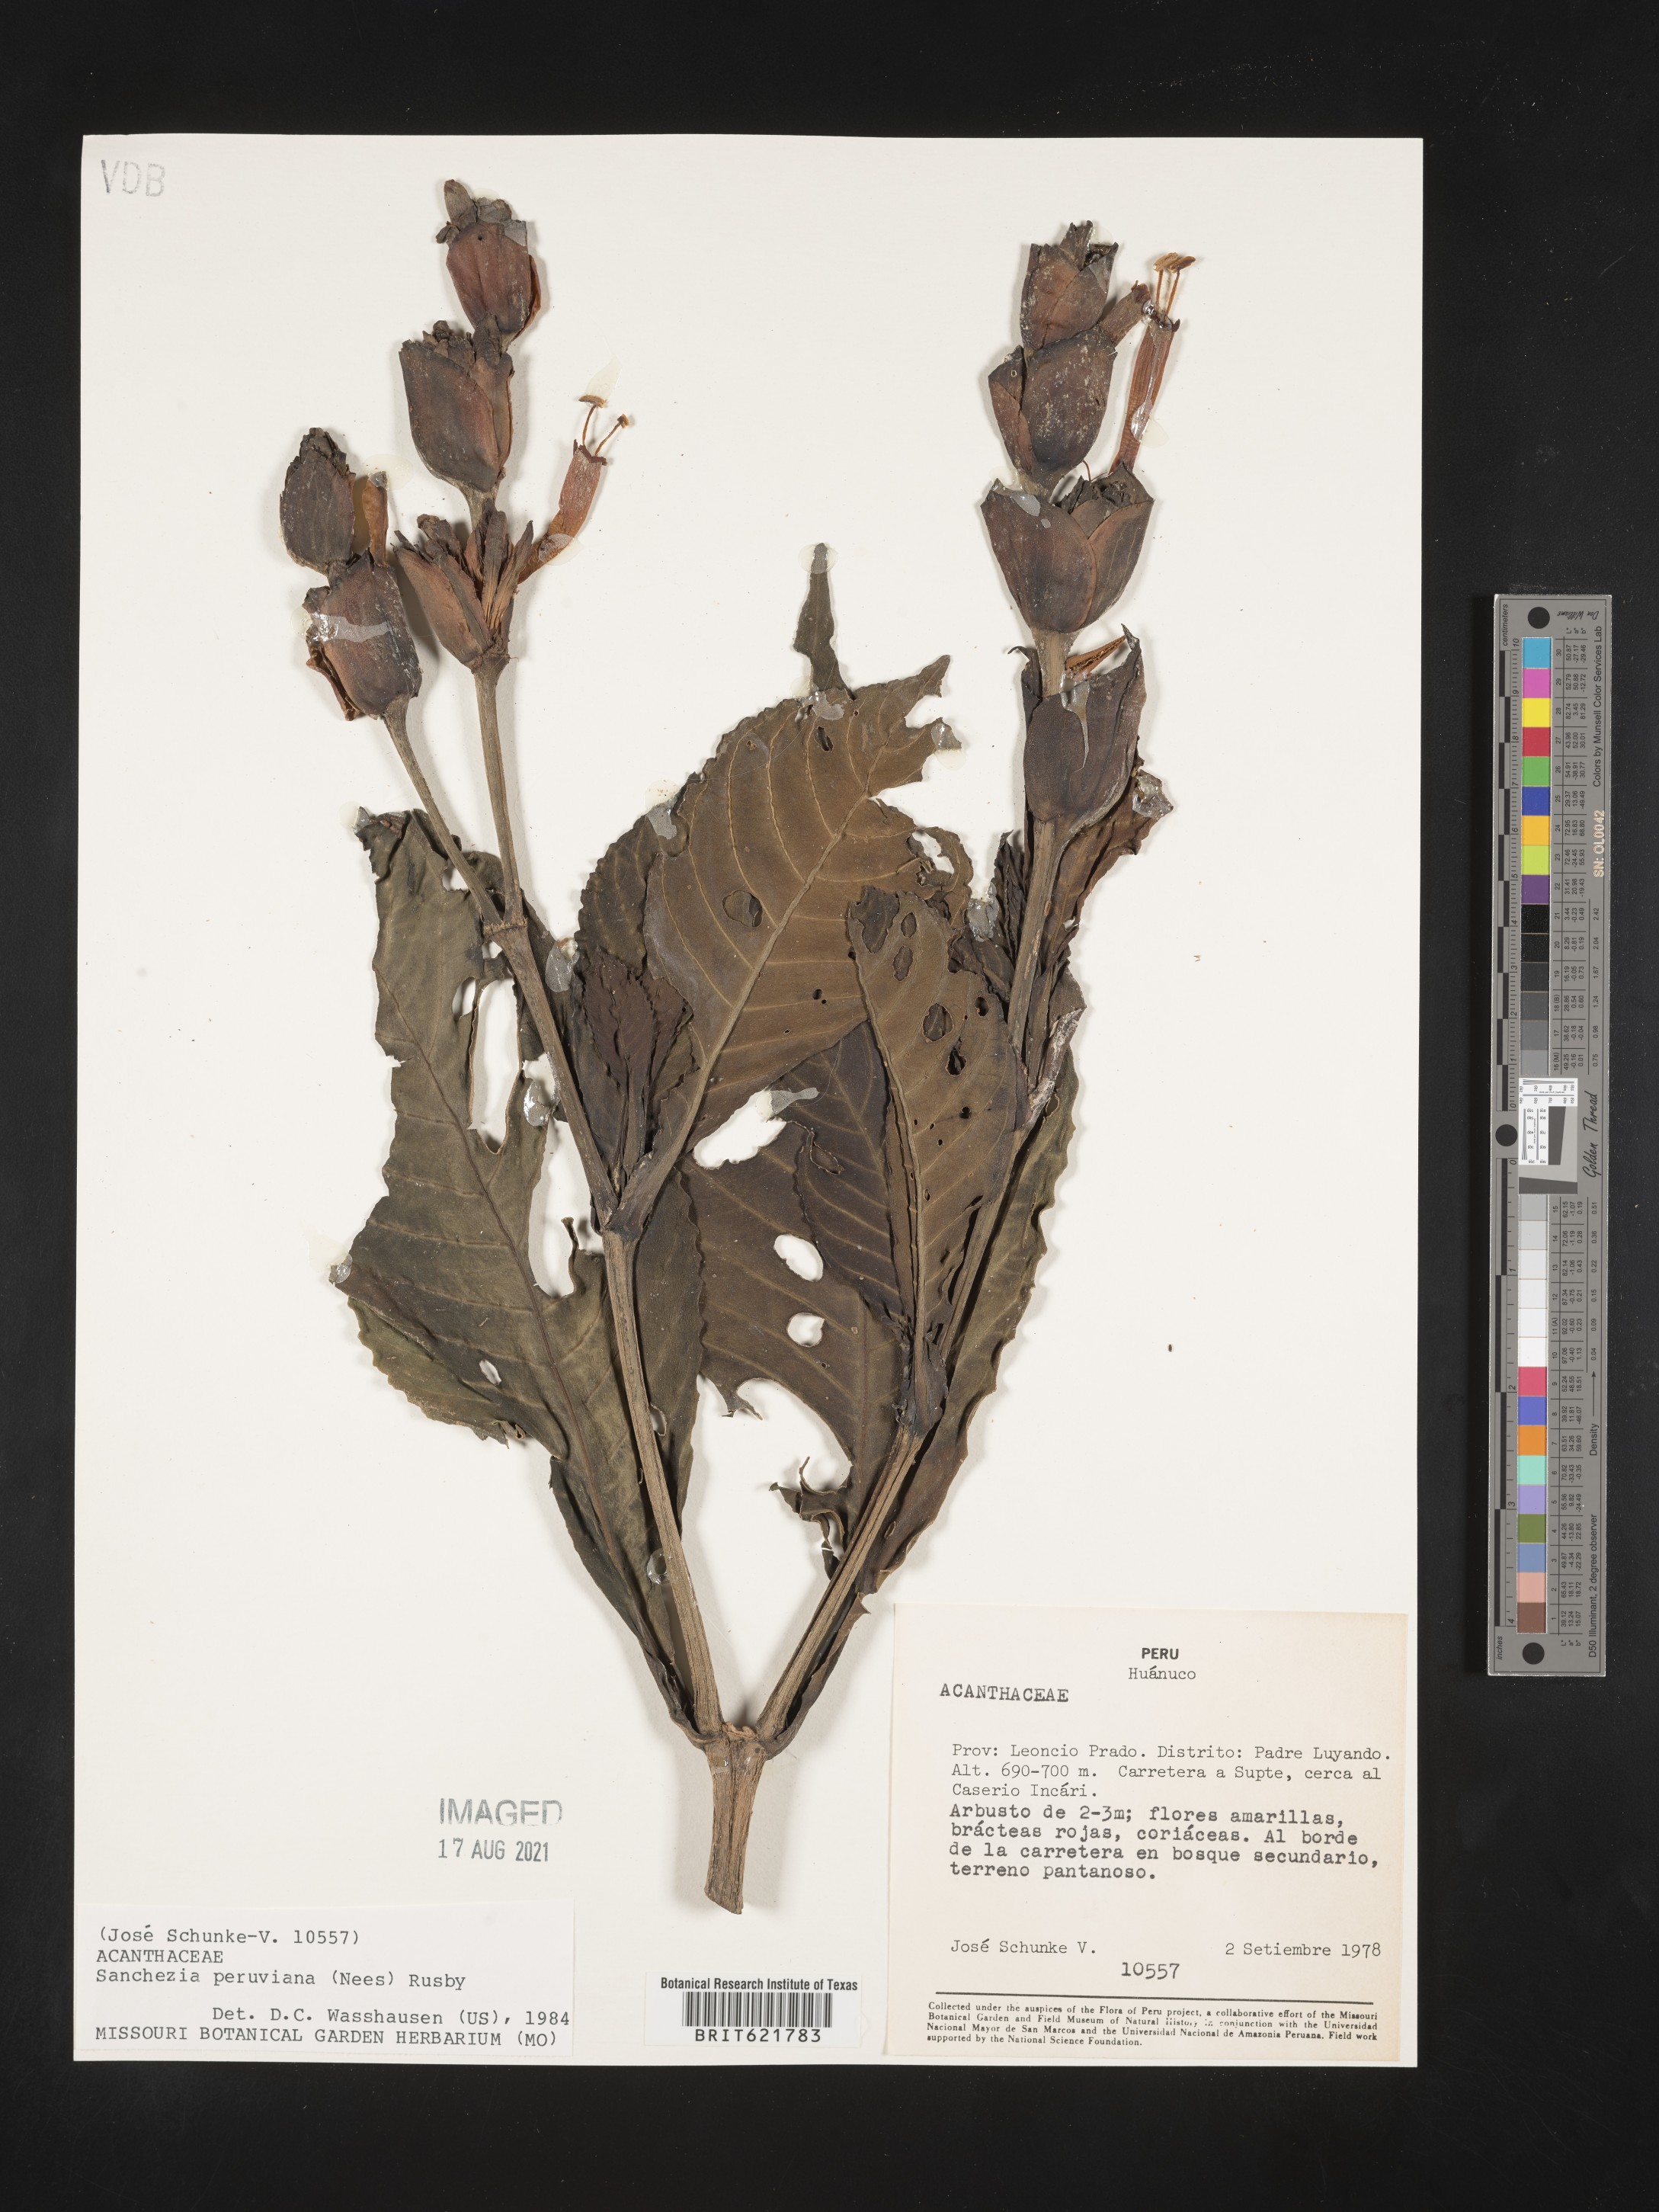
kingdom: Plantae
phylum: Tracheophyta
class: Magnoliopsida
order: Lamiales
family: Acanthaceae
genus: Sanchezia
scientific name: Sanchezia oblonga
